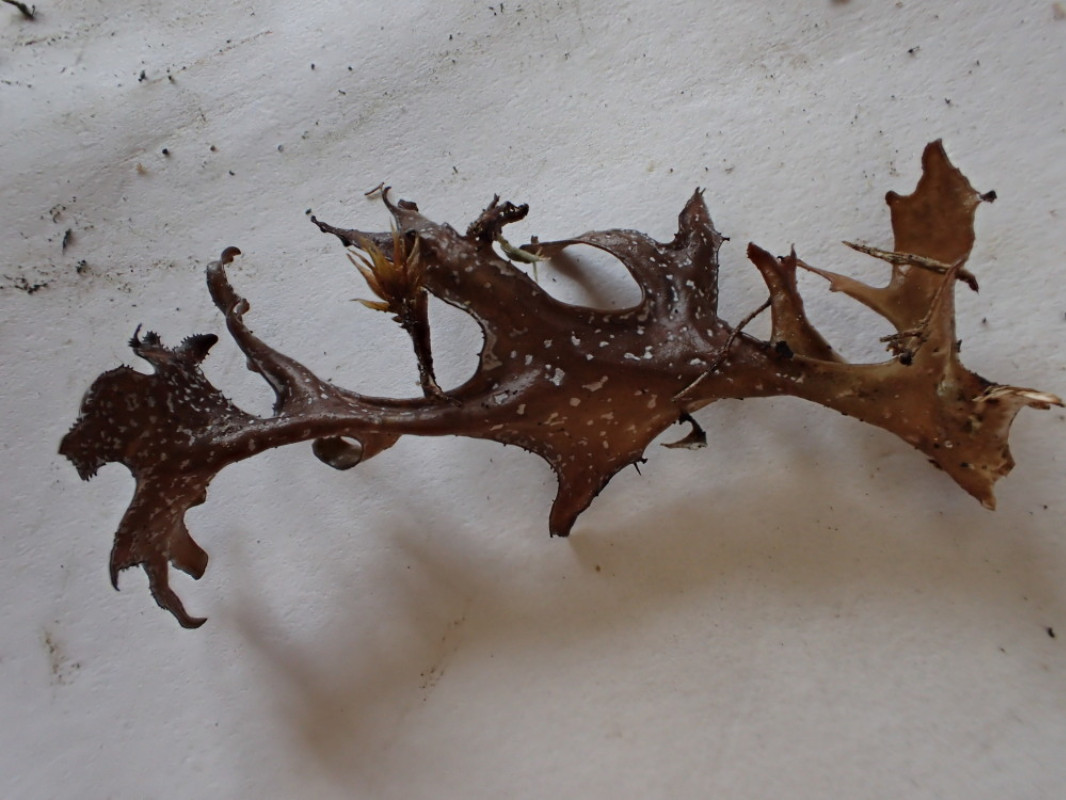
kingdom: Fungi
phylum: Ascomycota
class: Lecanoromycetes
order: Lecanorales
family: Parmeliaceae
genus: Cetraria
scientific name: Cetraria islandica
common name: islandsk kruslav
